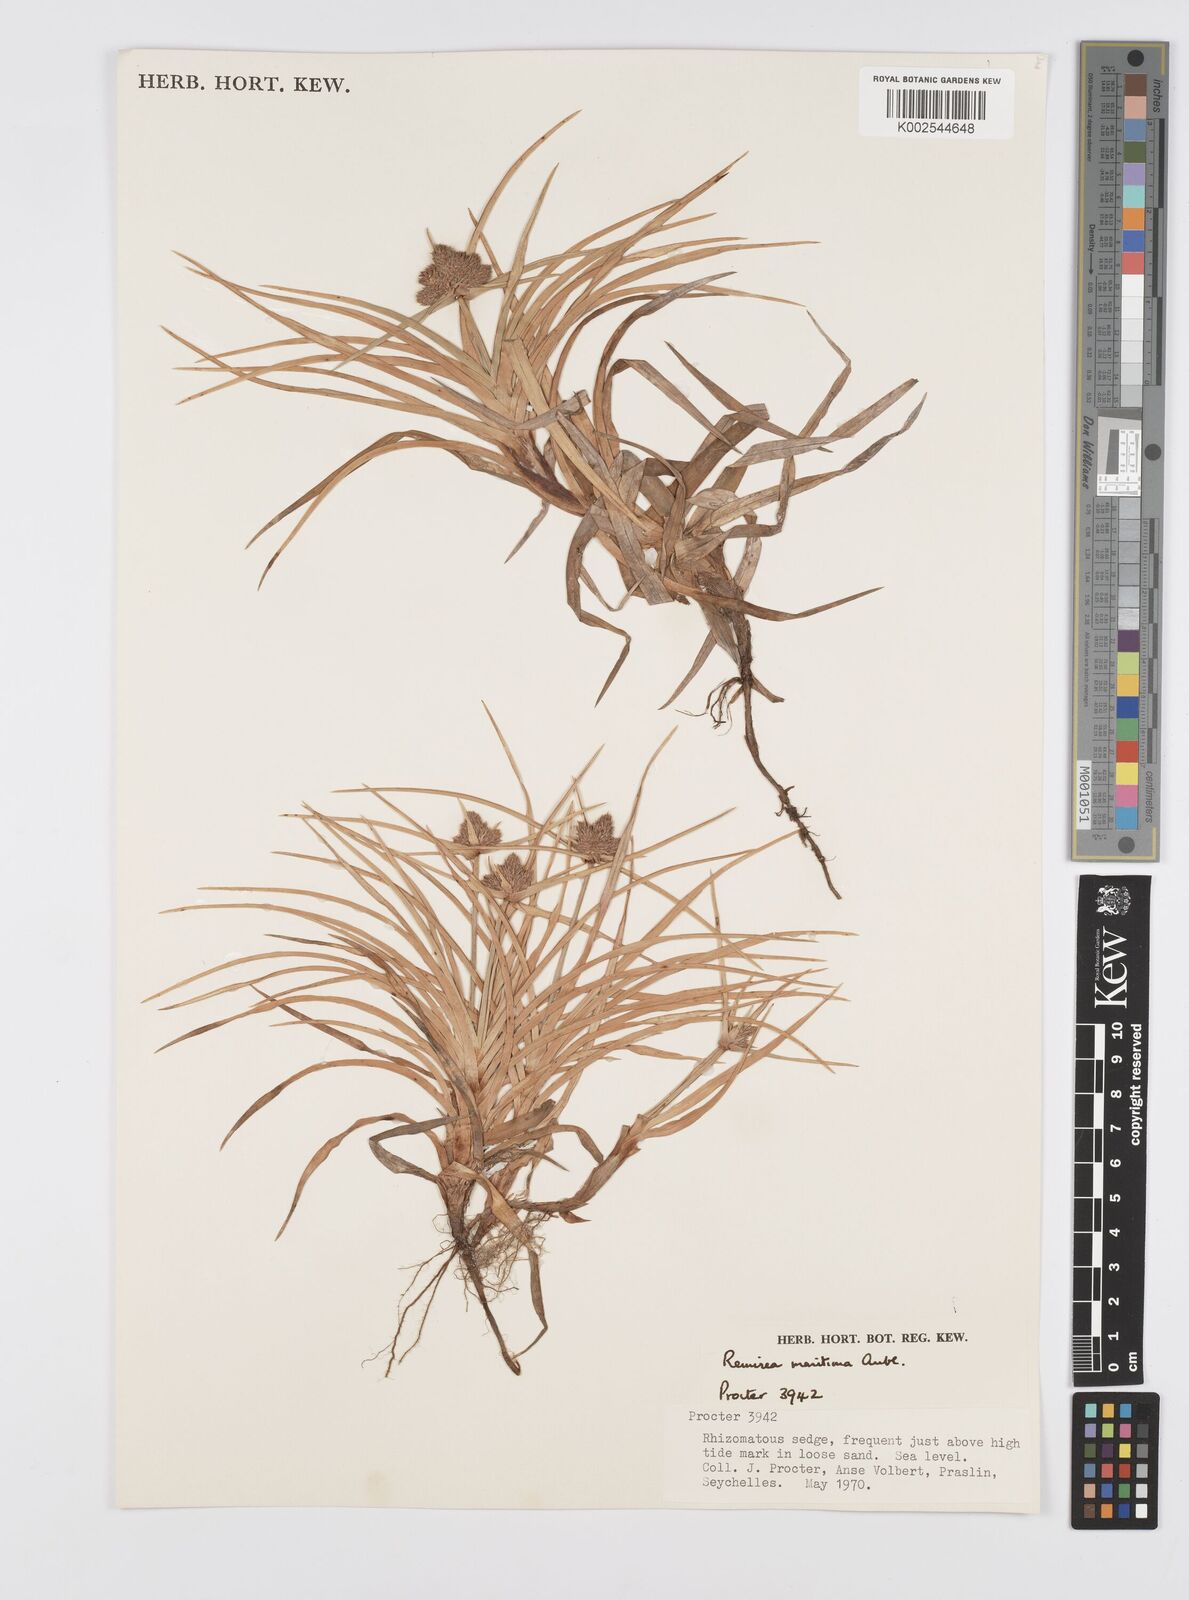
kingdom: Plantae
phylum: Tracheophyta
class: Liliopsida
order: Poales
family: Cyperaceae
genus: Cyperus
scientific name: Cyperus
